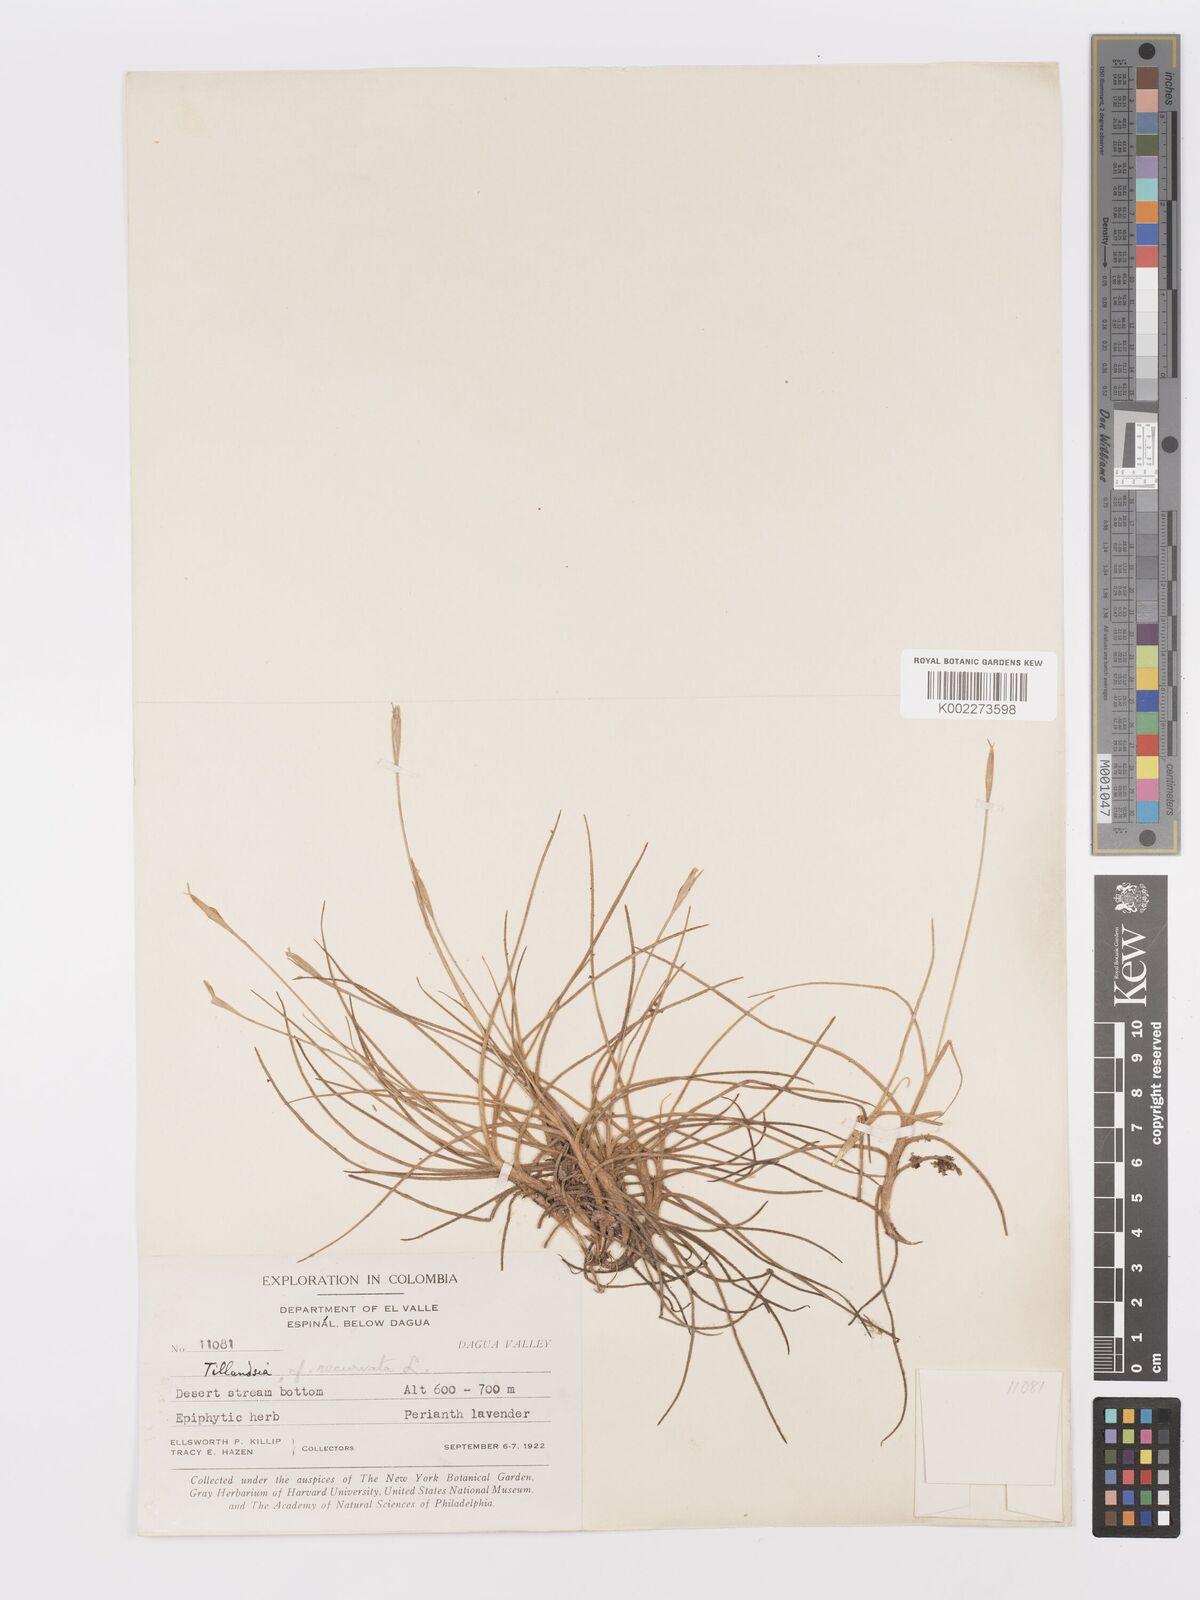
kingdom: Plantae
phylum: Tracheophyta
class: Liliopsida
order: Poales
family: Bromeliaceae
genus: Tillandsia
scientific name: Tillandsia recurvata
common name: Small ballmoss
